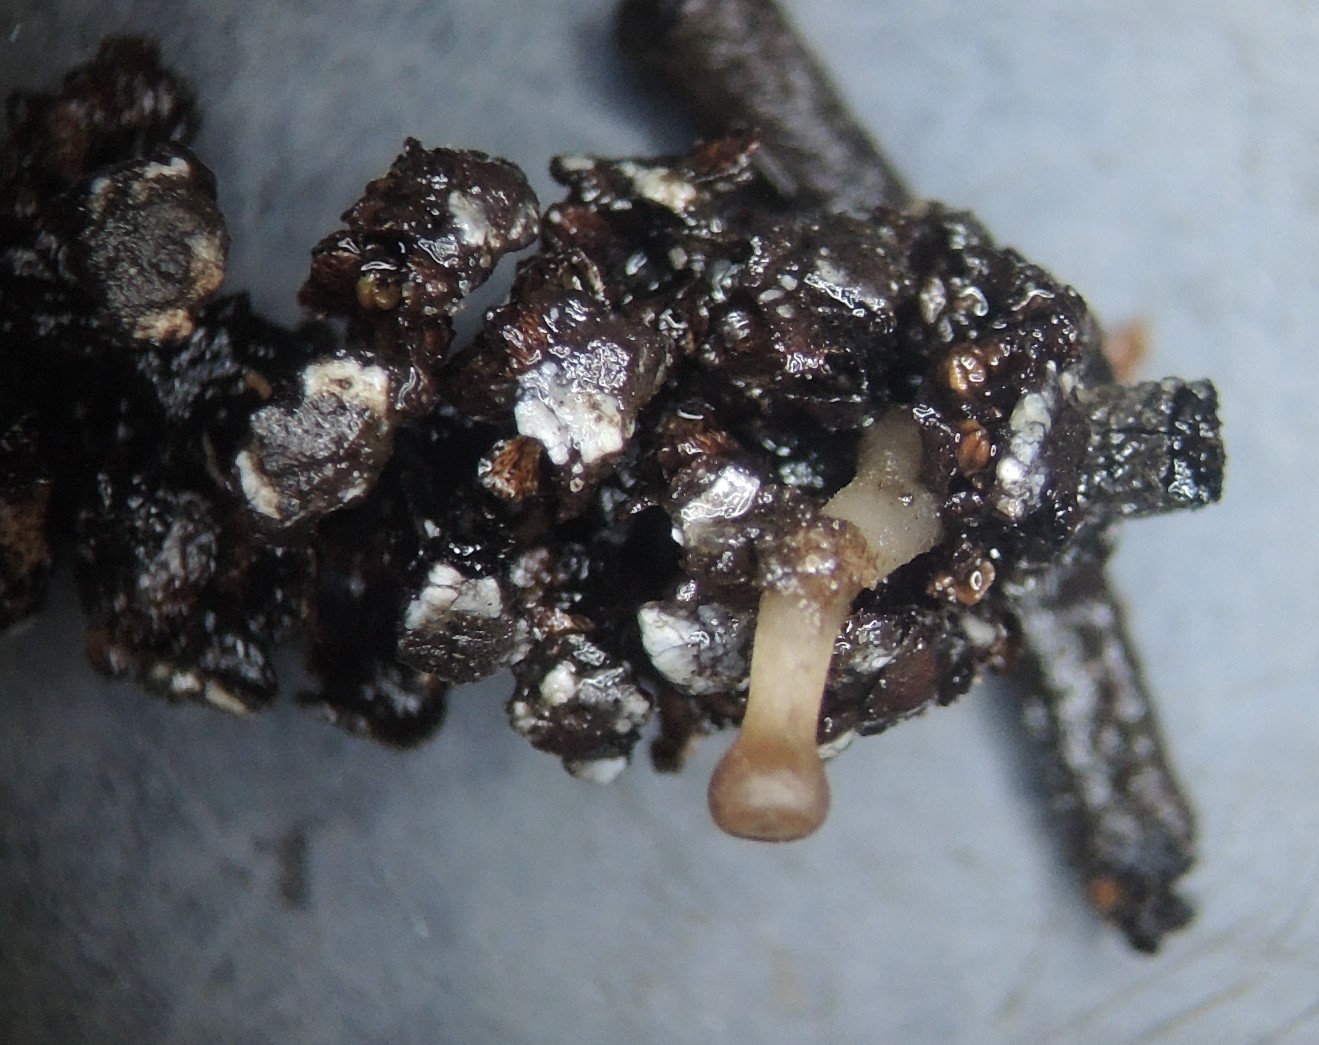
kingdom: Fungi
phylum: Ascomycota
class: Leotiomycetes
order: Helotiales
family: Sclerotiniaceae
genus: Ciboria
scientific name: Ciboria amentacea
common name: ellerakle-knoldskive
